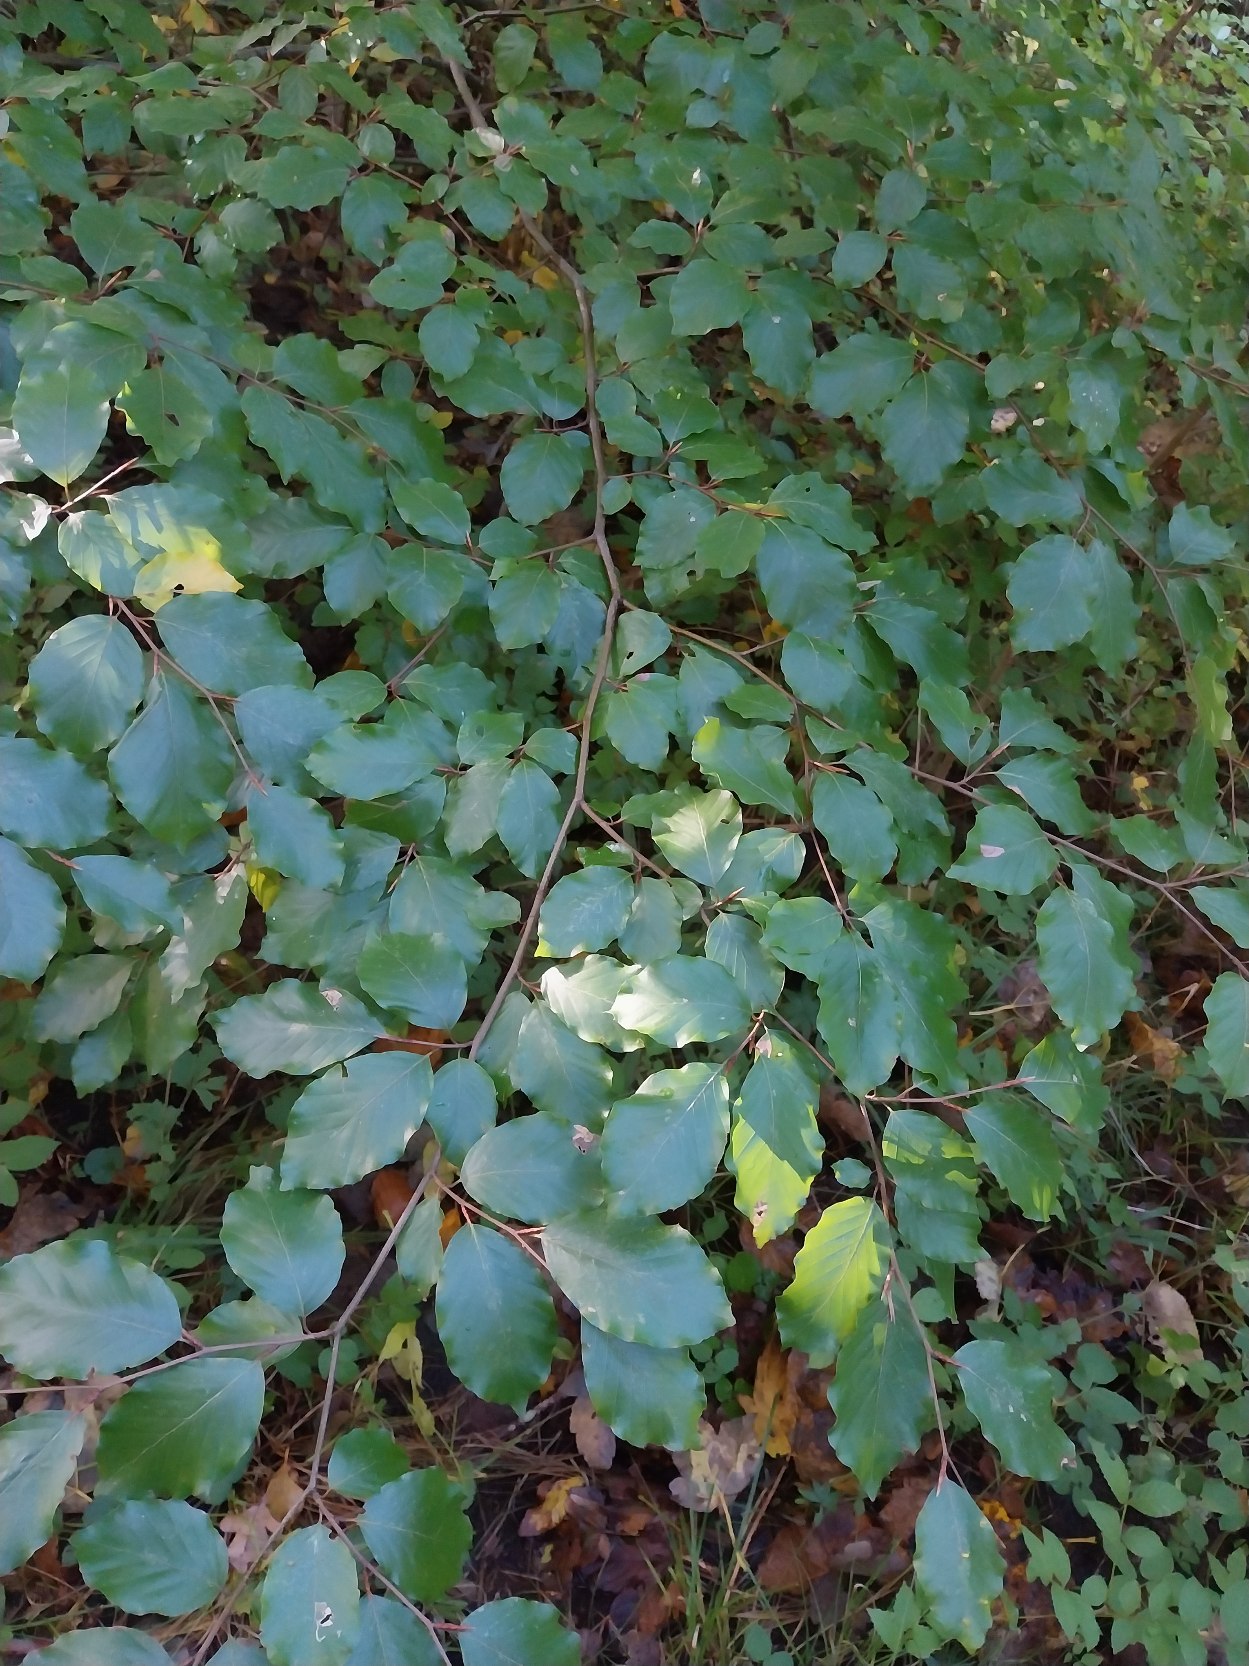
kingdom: Plantae
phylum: Tracheophyta
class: Magnoliopsida
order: Fagales
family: Fagaceae
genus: Fagus
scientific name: Fagus sylvatica
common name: Bøg
